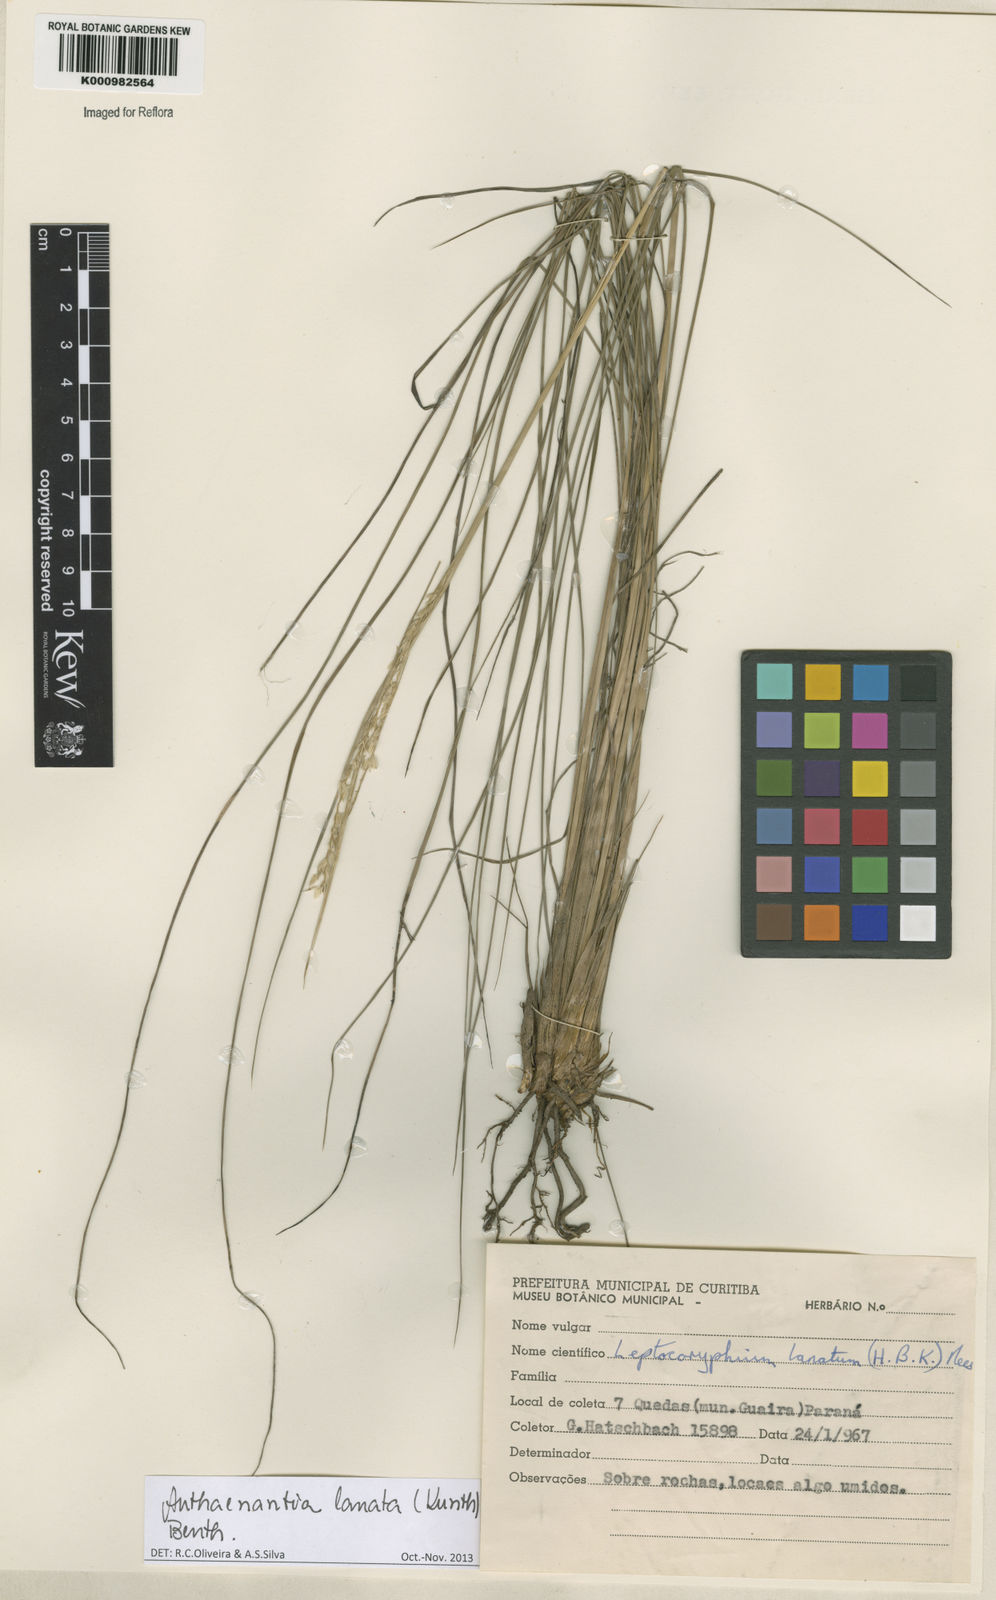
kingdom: Plantae
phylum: Tracheophyta
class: Liliopsida
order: Poales
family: Poaceae
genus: Anthenantia
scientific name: Anthenantia lanata
